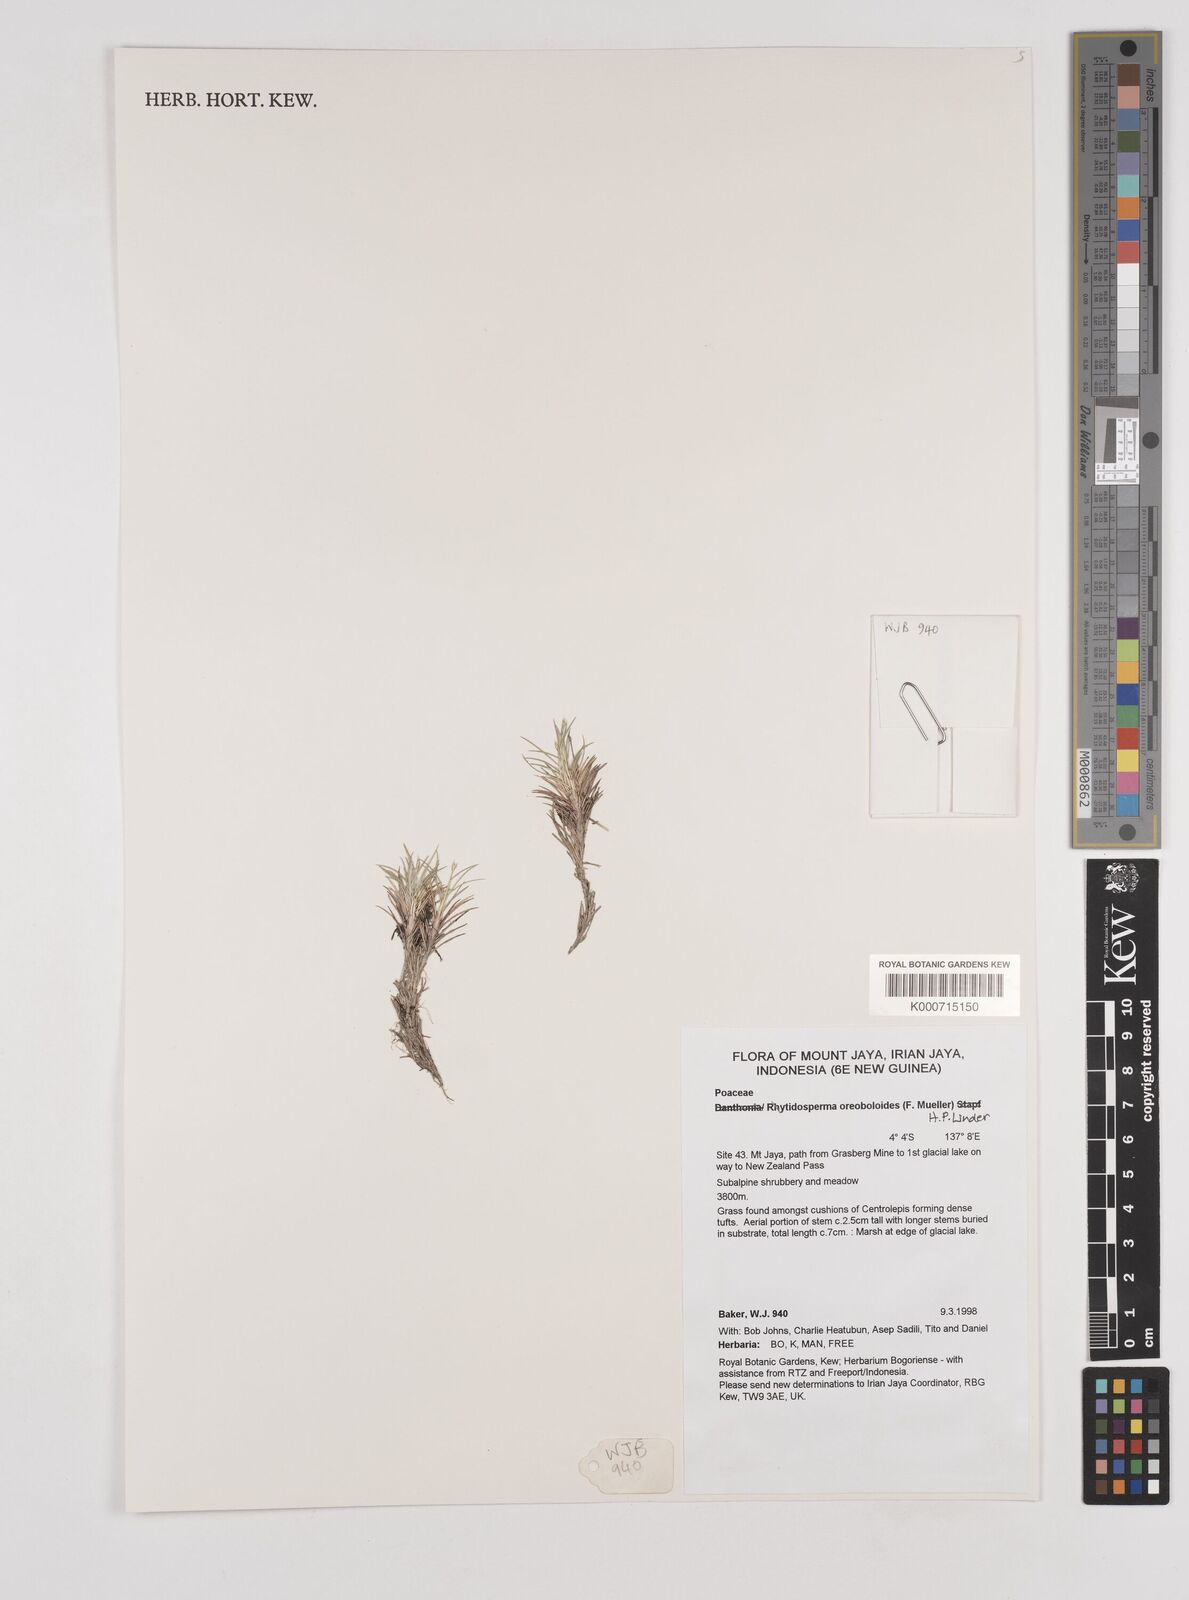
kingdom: Plantae
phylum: Tracheophyta
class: Liliopsida
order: Poales
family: Poaceae
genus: Rytidosperma
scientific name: Rytidosperma oreoboloides
